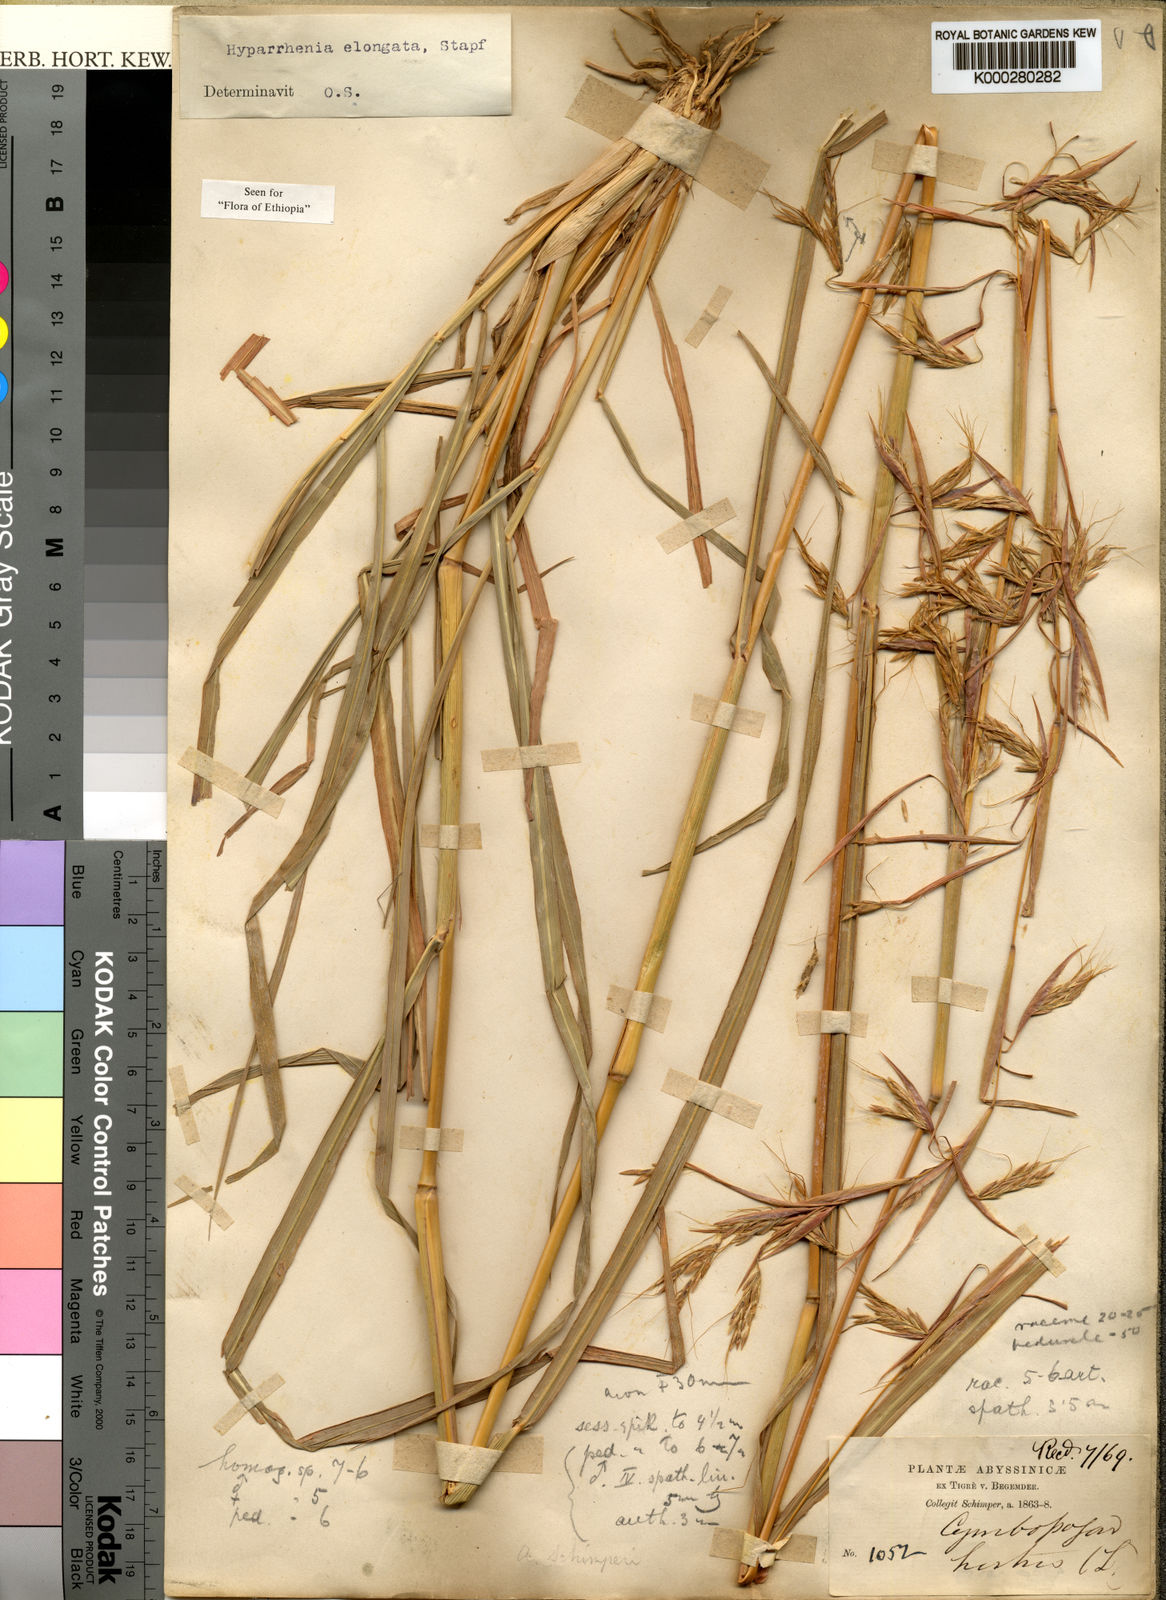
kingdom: Plantae
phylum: Tracheophyta
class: Liliopsida
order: Poales
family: Poaceae
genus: Hyparrhenia
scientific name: Hyparrhenia dregeana
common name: Silky thatching grass
